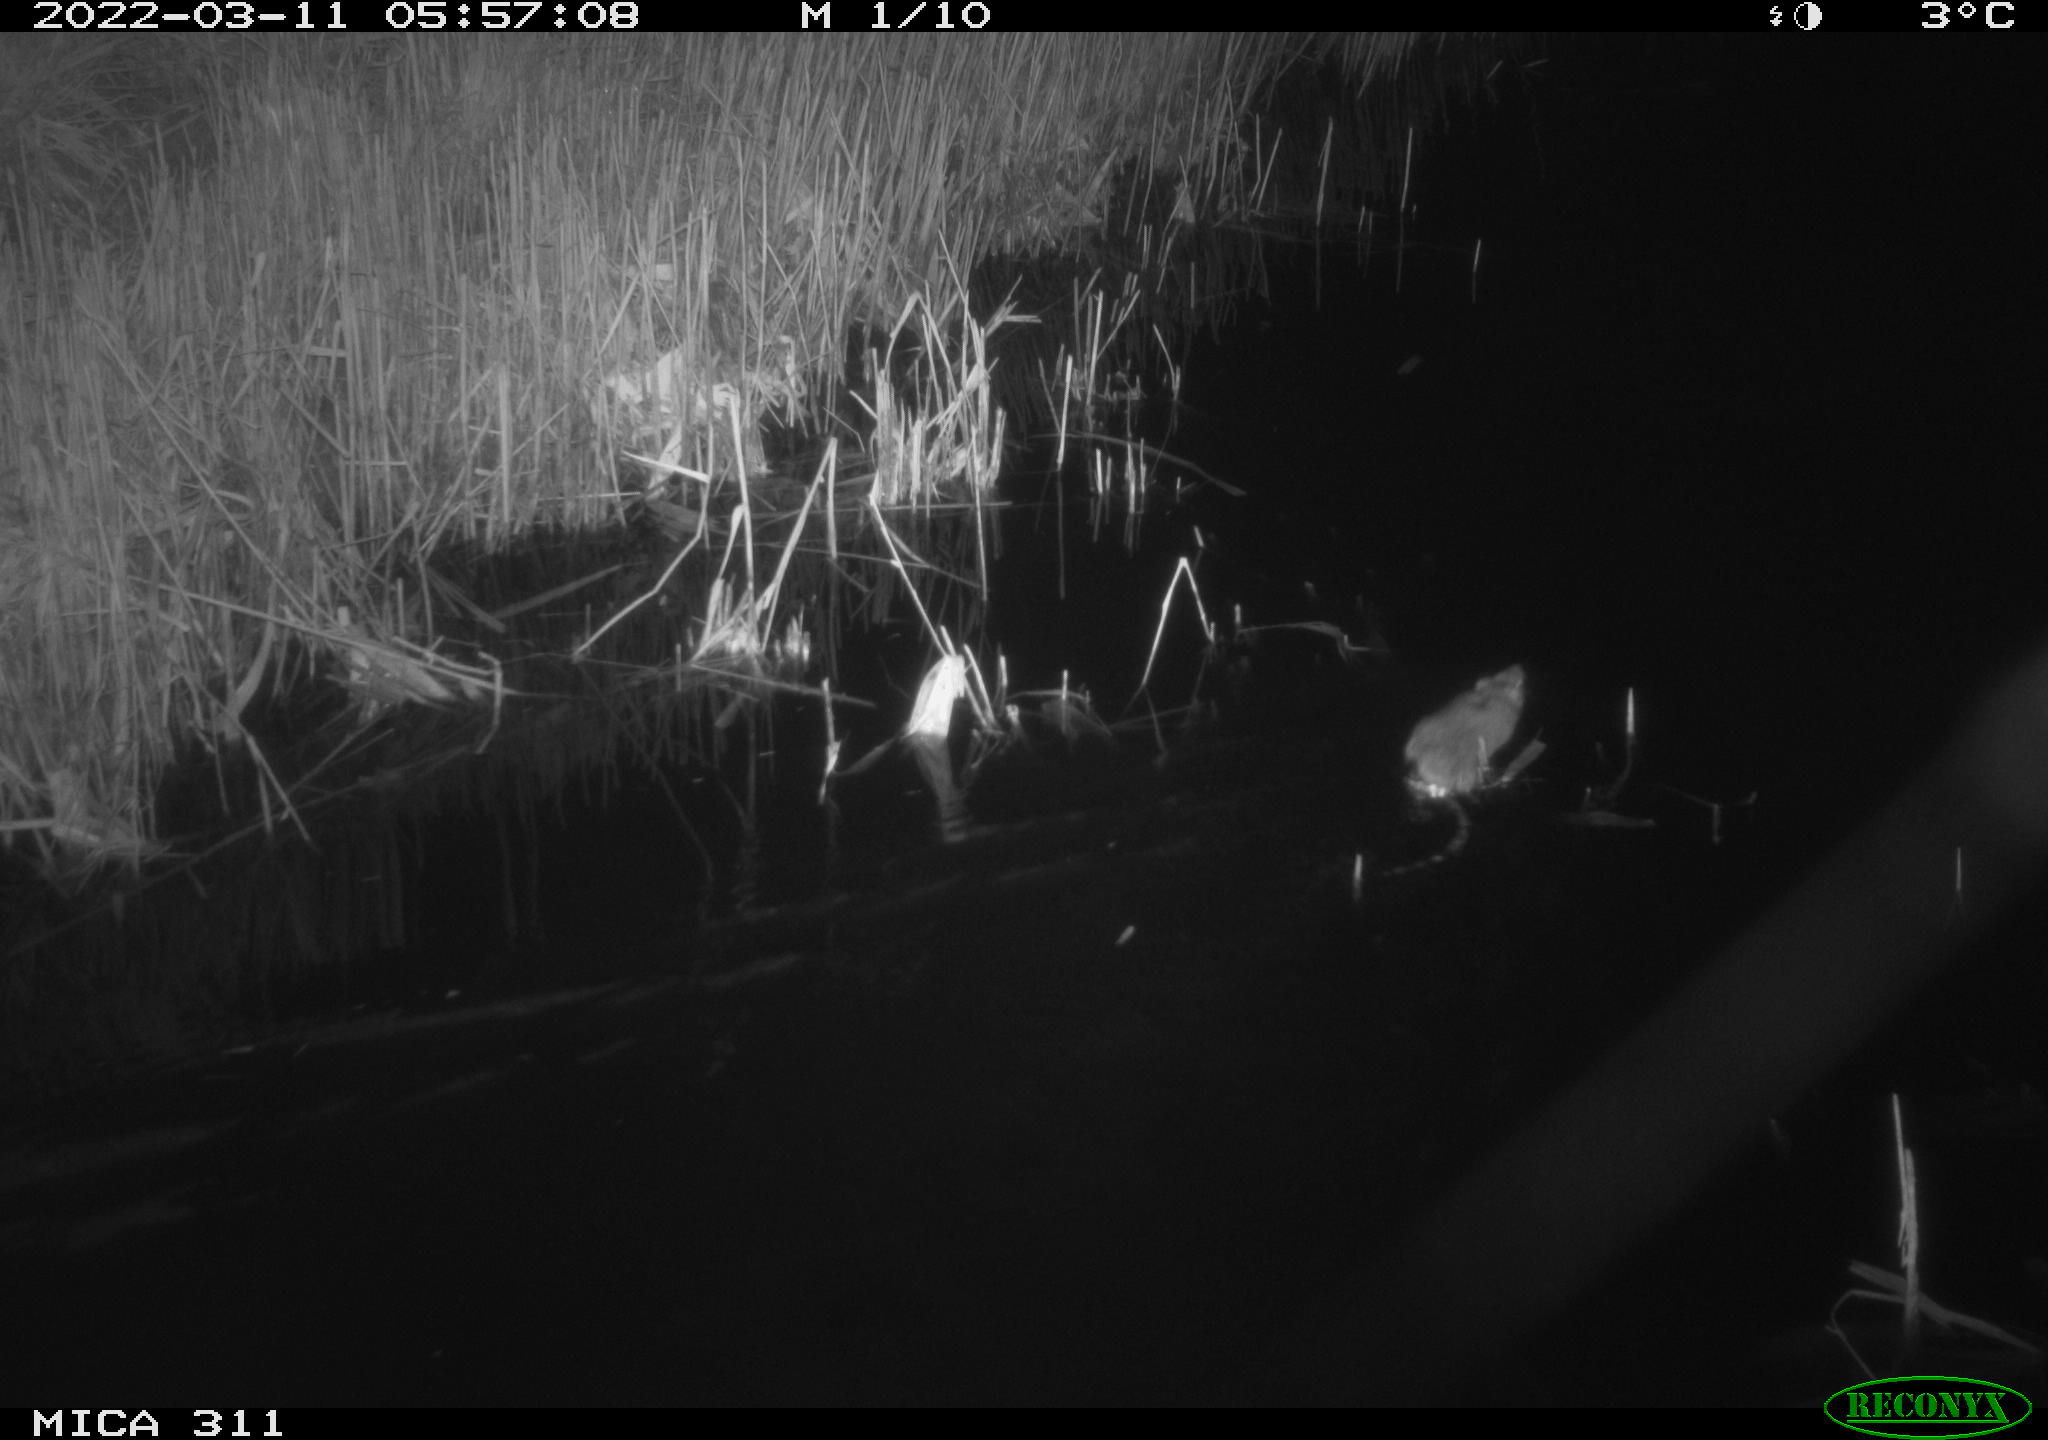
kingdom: Animalia
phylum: Chordata
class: Mammalia
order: Rodentia
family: Muridae
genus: Rattus
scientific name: Rattus norvegicus
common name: Brown rat
